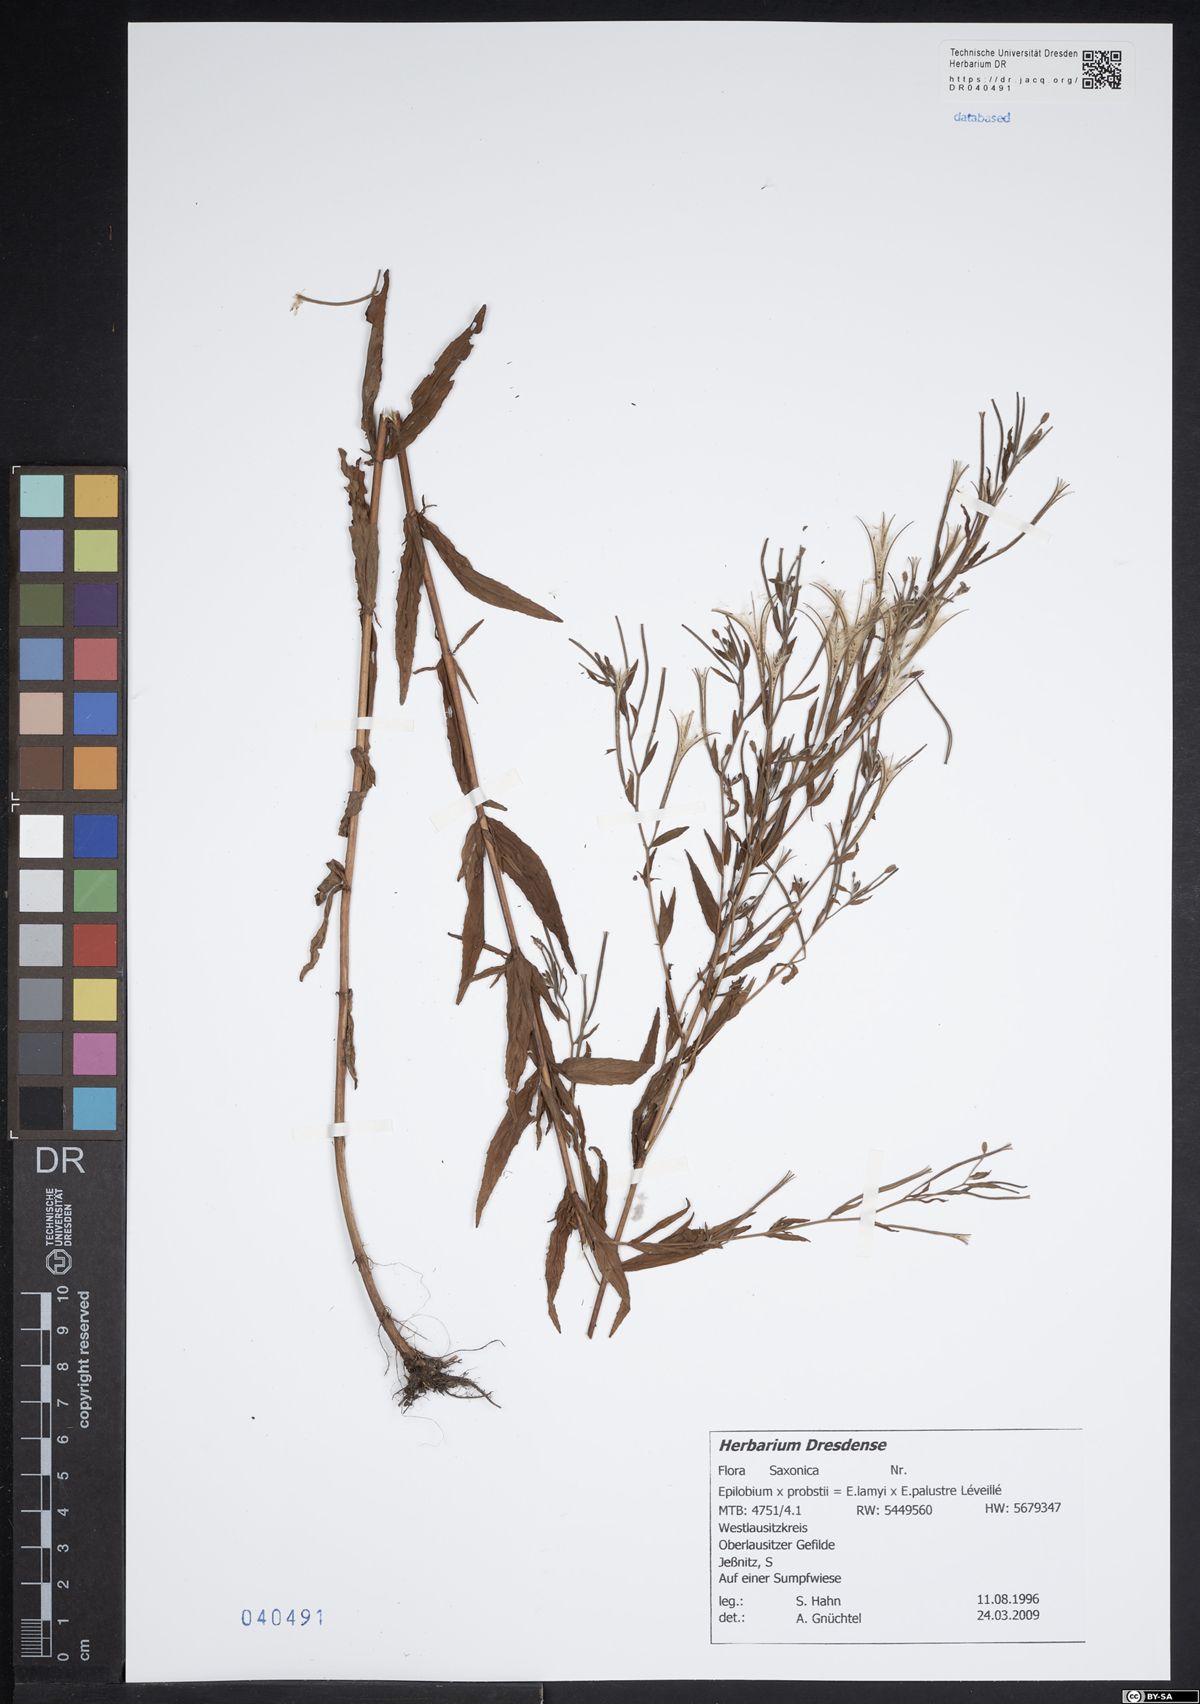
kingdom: Plantae
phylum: Tracheophyta
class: Magnoliopsida
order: Myrtales
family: Onagraceae
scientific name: Onagraceae
